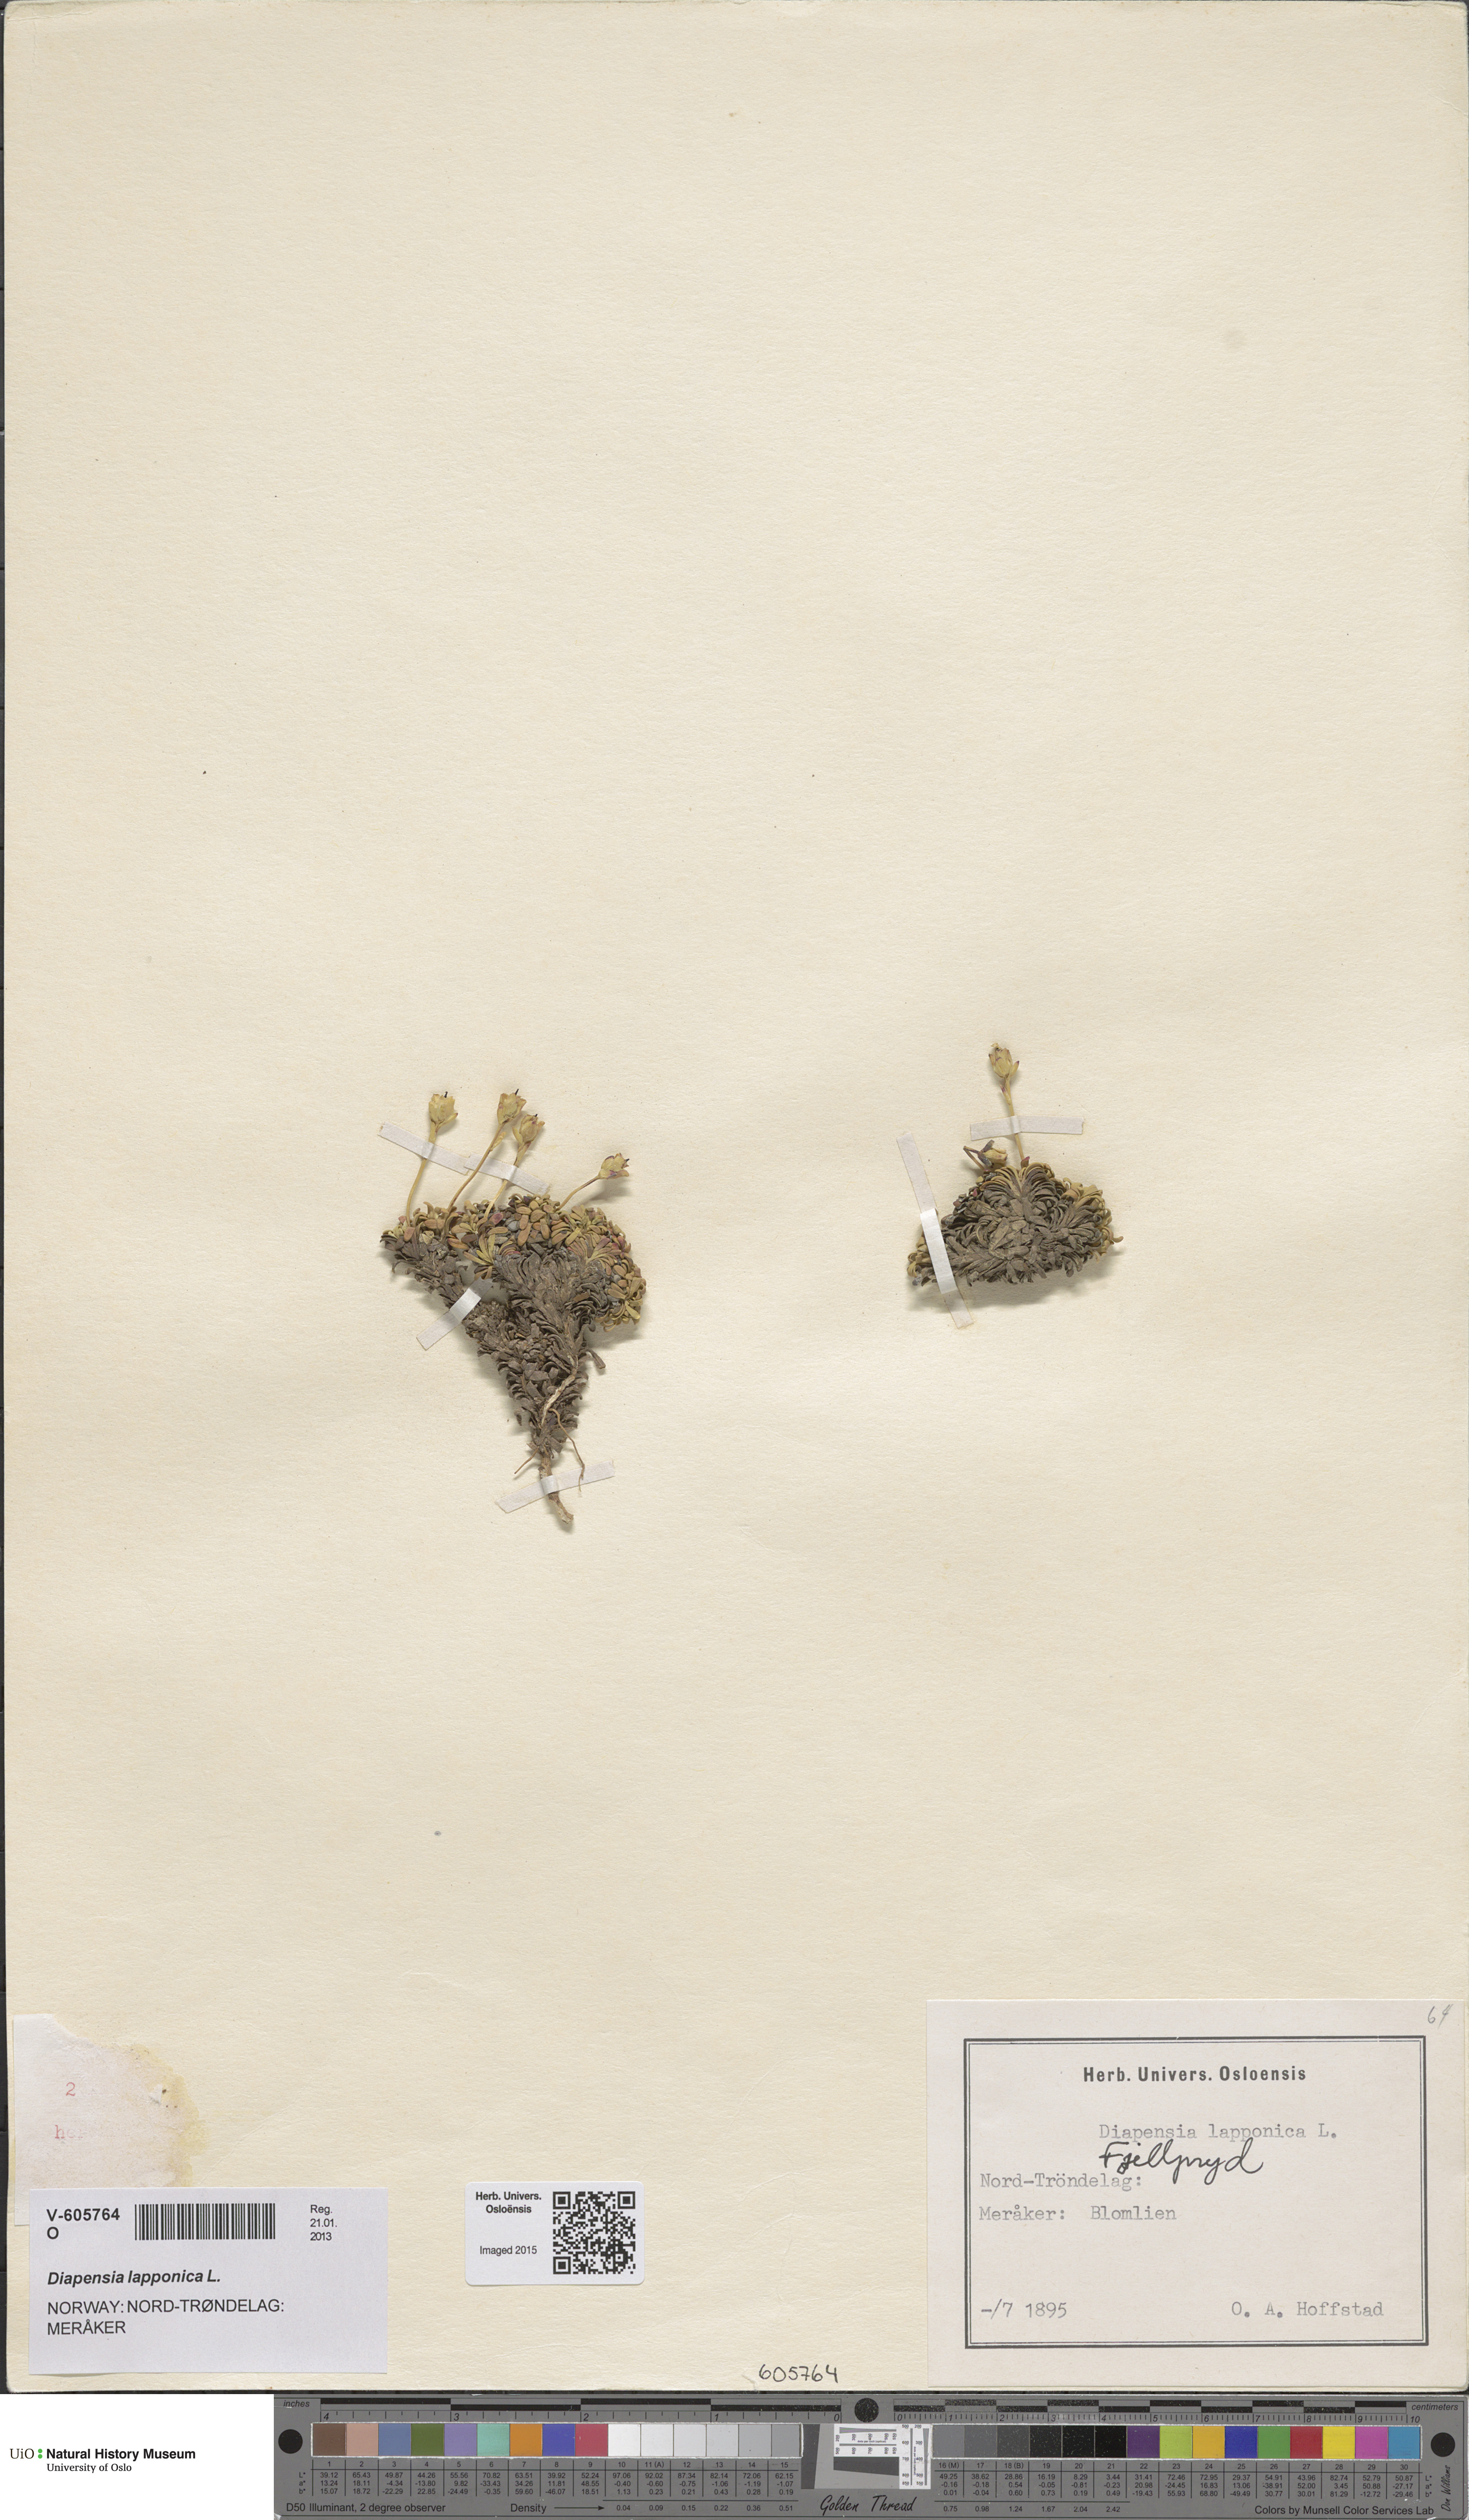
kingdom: Plantae
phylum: Tracheophyta
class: Magnoliopsida
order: Ericales
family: Diapensiaceae
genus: Diapensia
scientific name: Diapensia lapponica
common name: Diapensia
